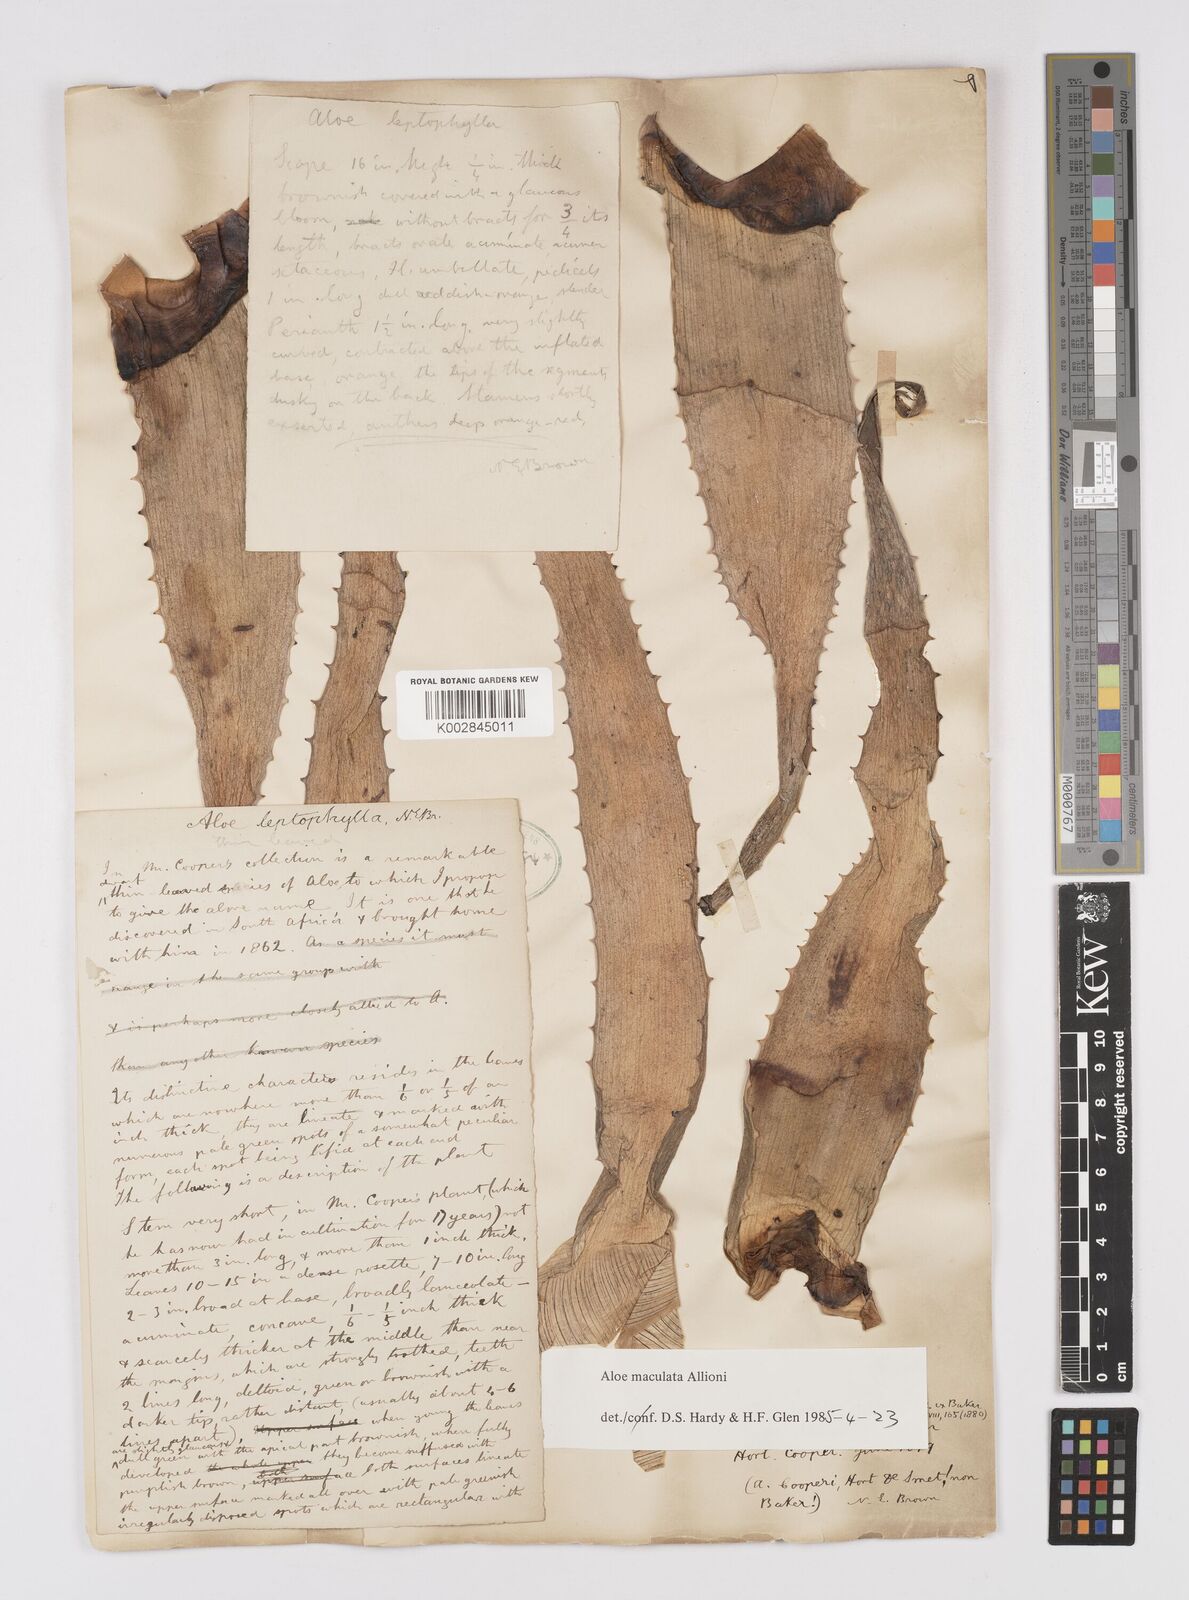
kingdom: Plantae
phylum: Tracheophyta
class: Liliopsida
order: Asparagales
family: Asphodelaceae
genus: Aloe
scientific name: Aloe microstigma
